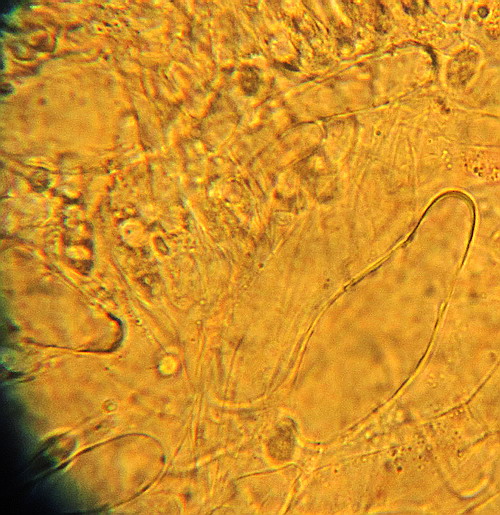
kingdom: Fungi
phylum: Basidiomycota
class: Agaricomycetes
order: Agaricales
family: Hygrophoraceae
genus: Chrysomphalina
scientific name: Chrysomphalina grossula
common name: stød-gyldenblad
